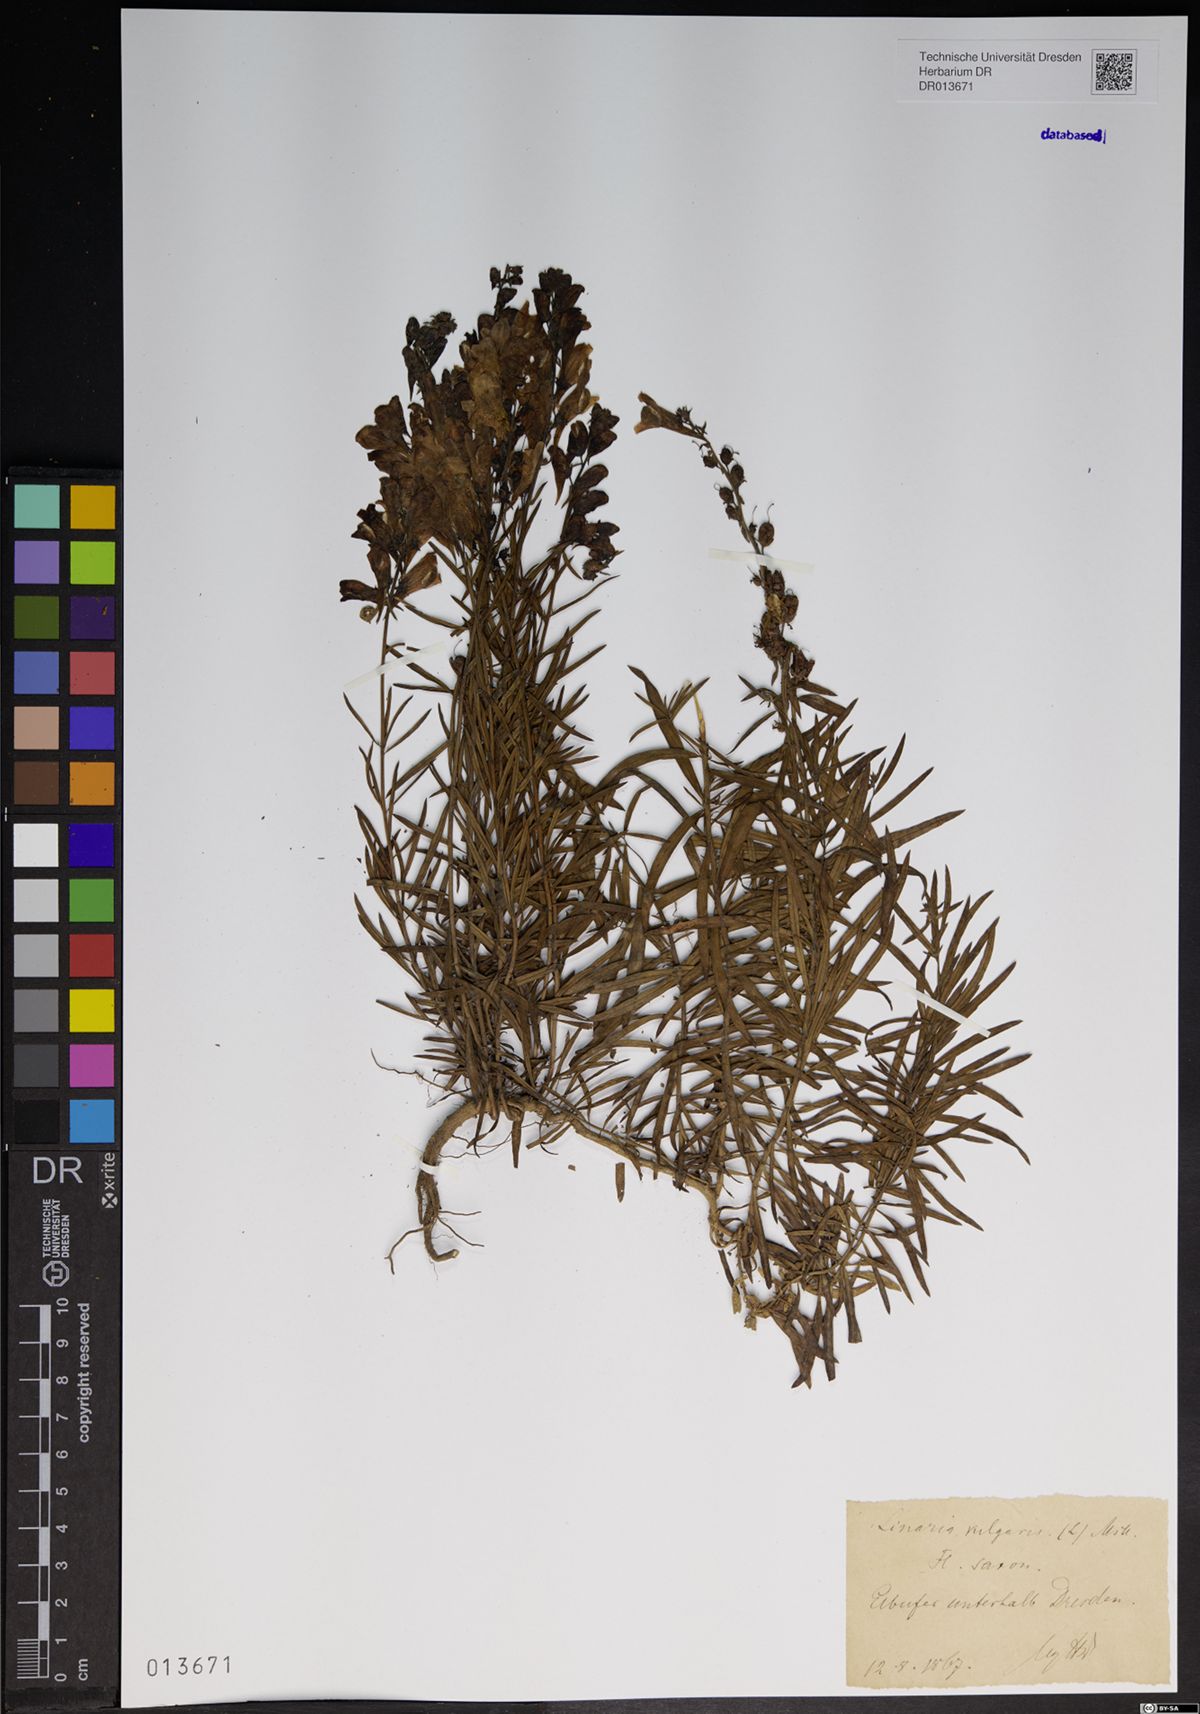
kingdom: Plantae
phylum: Tracheophyta
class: Magnoliopsida
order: Lamiales
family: Plantaginaceae
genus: Linaria
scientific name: Linaria vulgaris
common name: Butter and eggs
